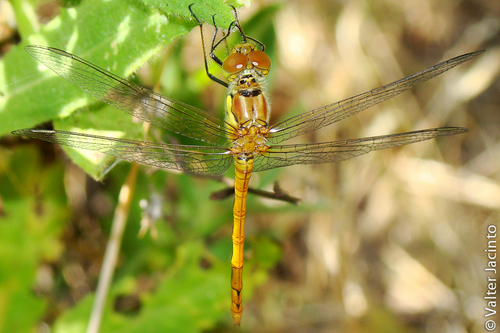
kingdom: Animalia
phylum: Arthropoda
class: Insecta
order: Odonata
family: Libellulidae
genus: Sympetrum
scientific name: Sympetrum striolatum
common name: Common darter
